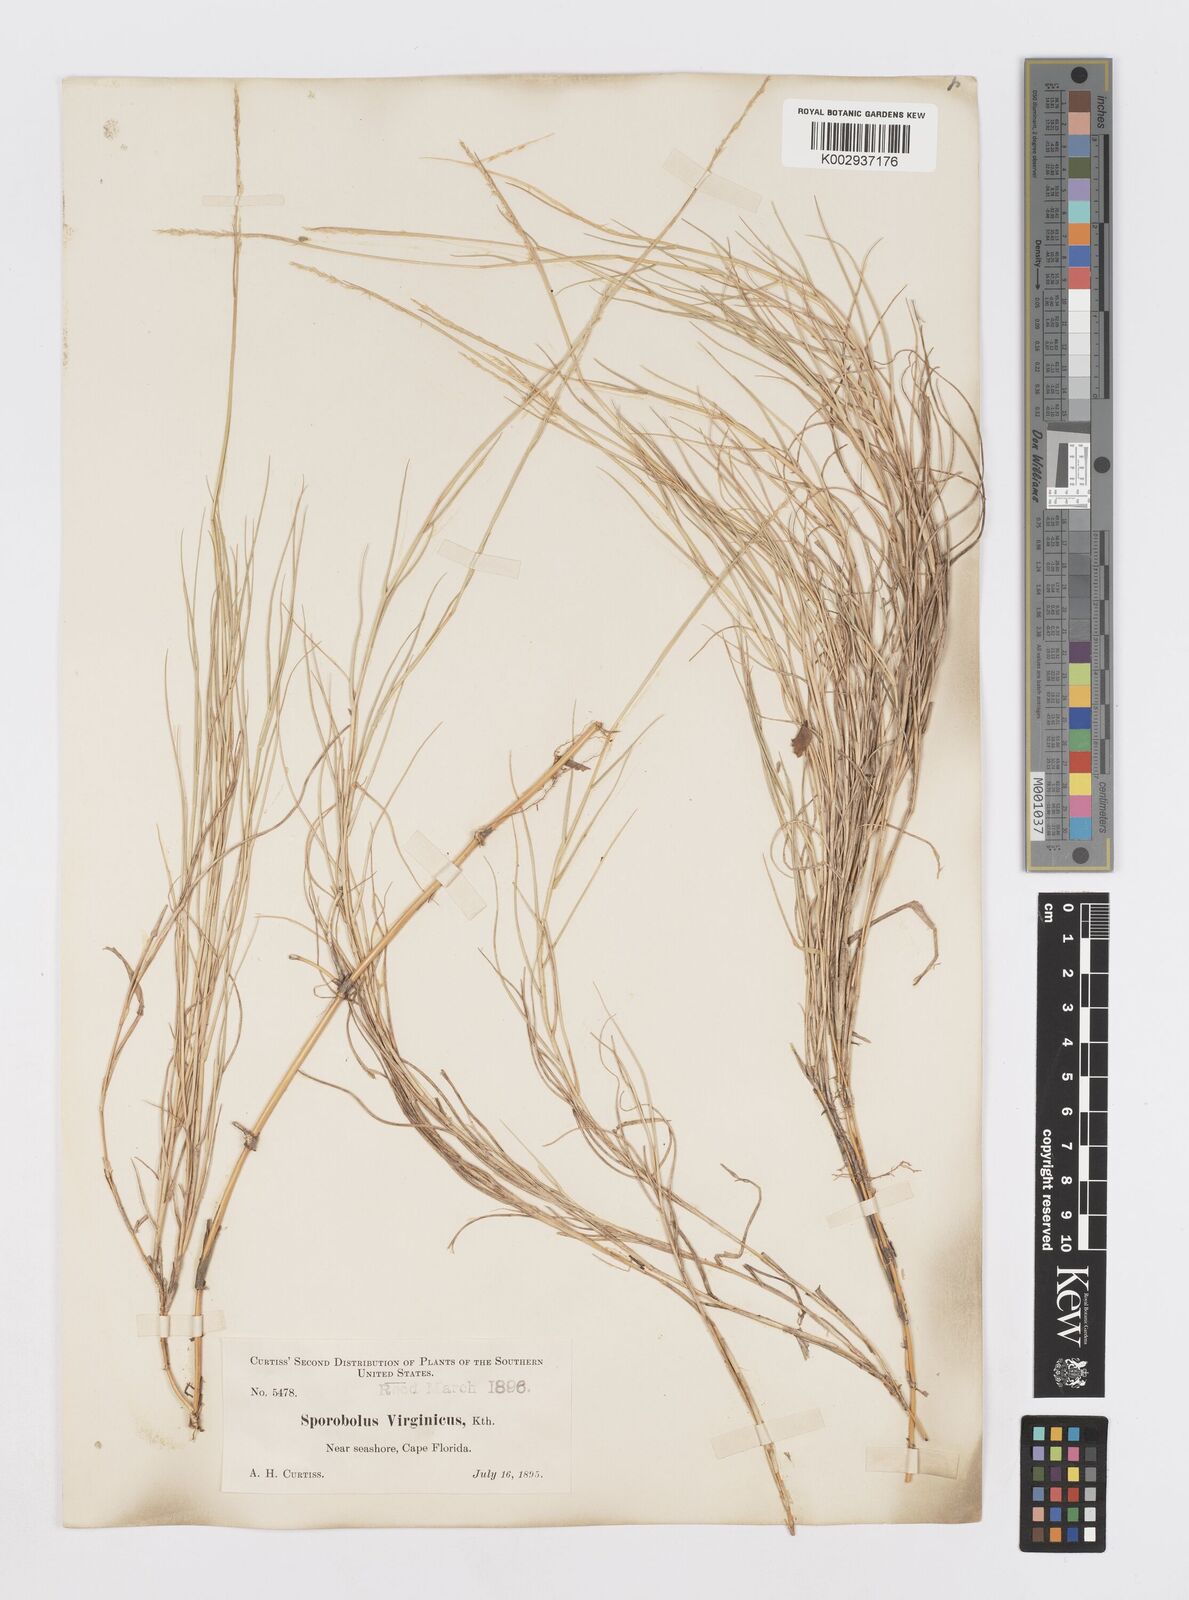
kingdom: Plantae
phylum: Tracheophyta
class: Liliopsida
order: Poales
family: Poaceae
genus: Sporobolus
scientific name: Sporobolus virginicus
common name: Beach dropseed
